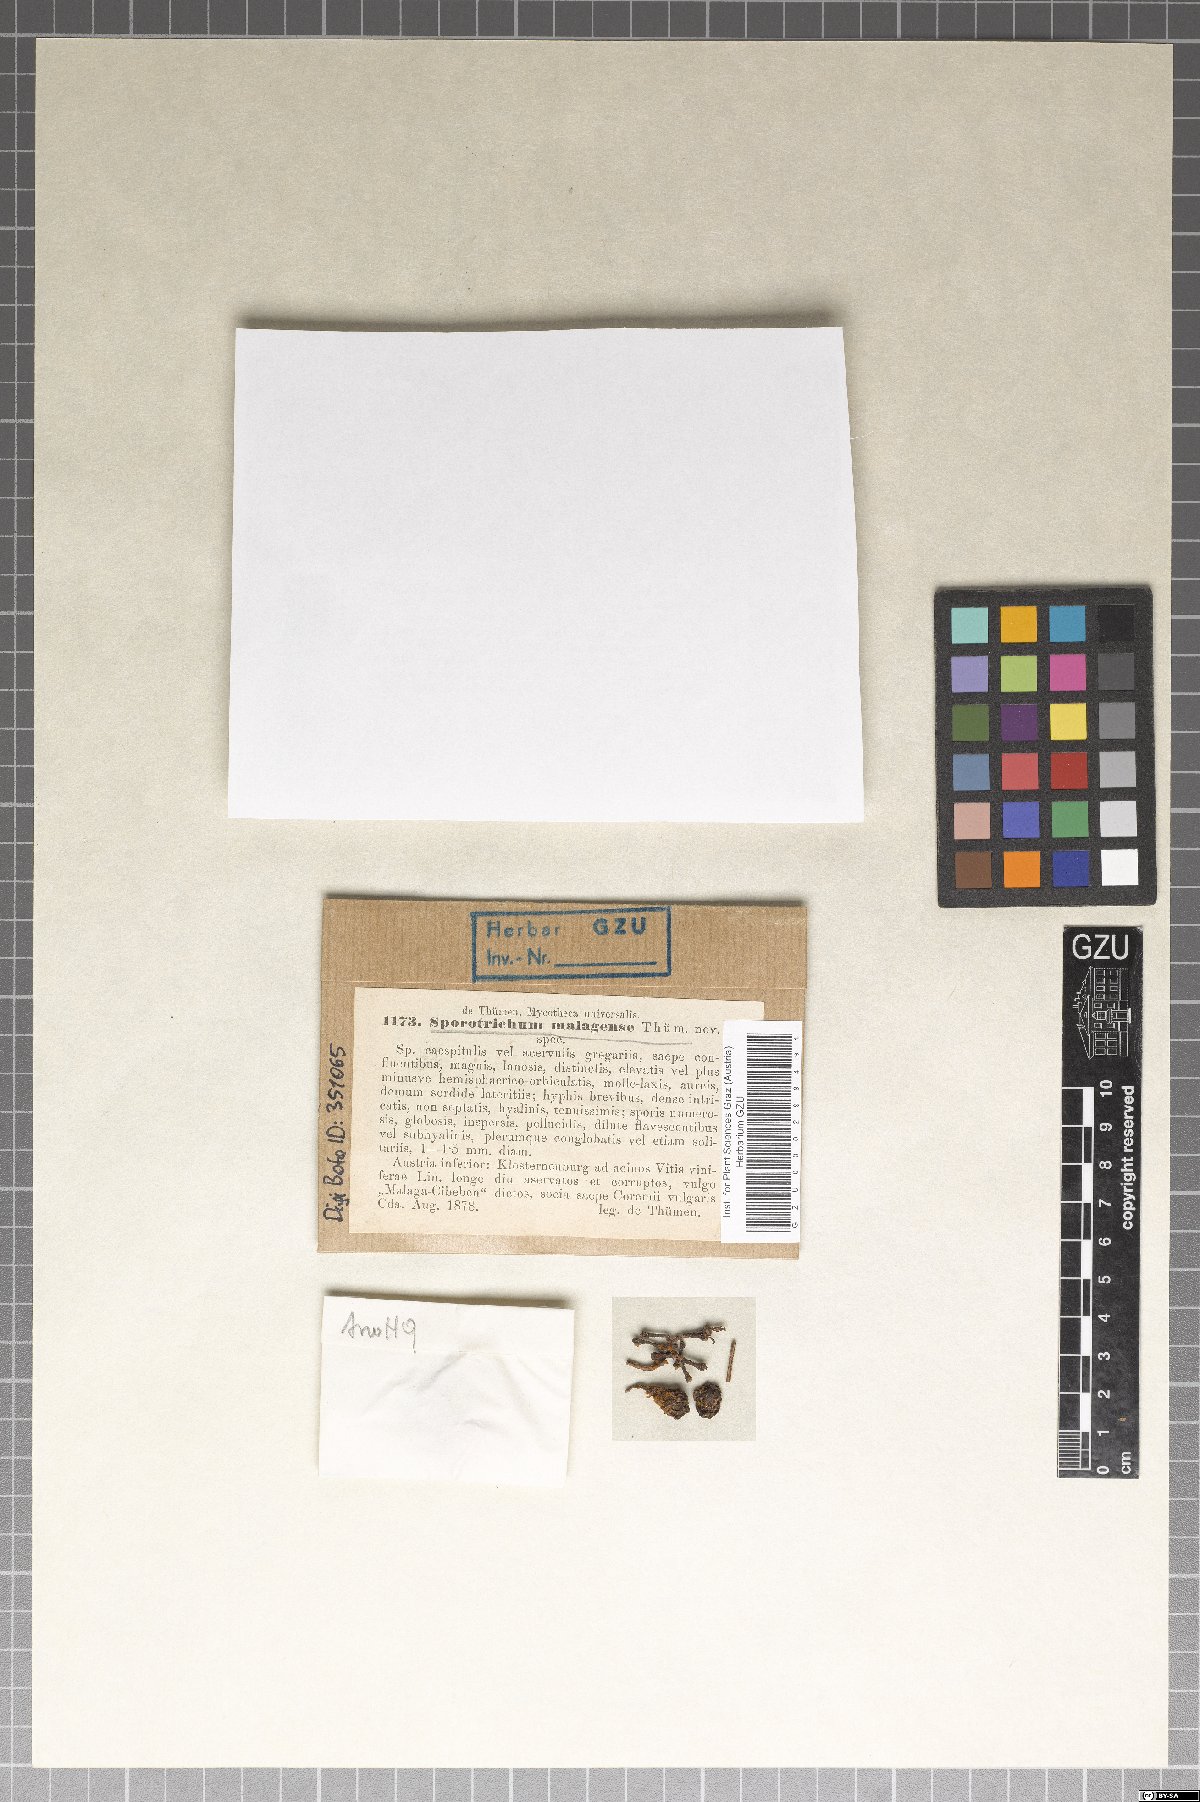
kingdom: Fungi
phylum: Ascomycota
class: Eurotiomycetes
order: Eurotiales
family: Aspergillaceae
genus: Talaromyces
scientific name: Talaromyces malagensis
